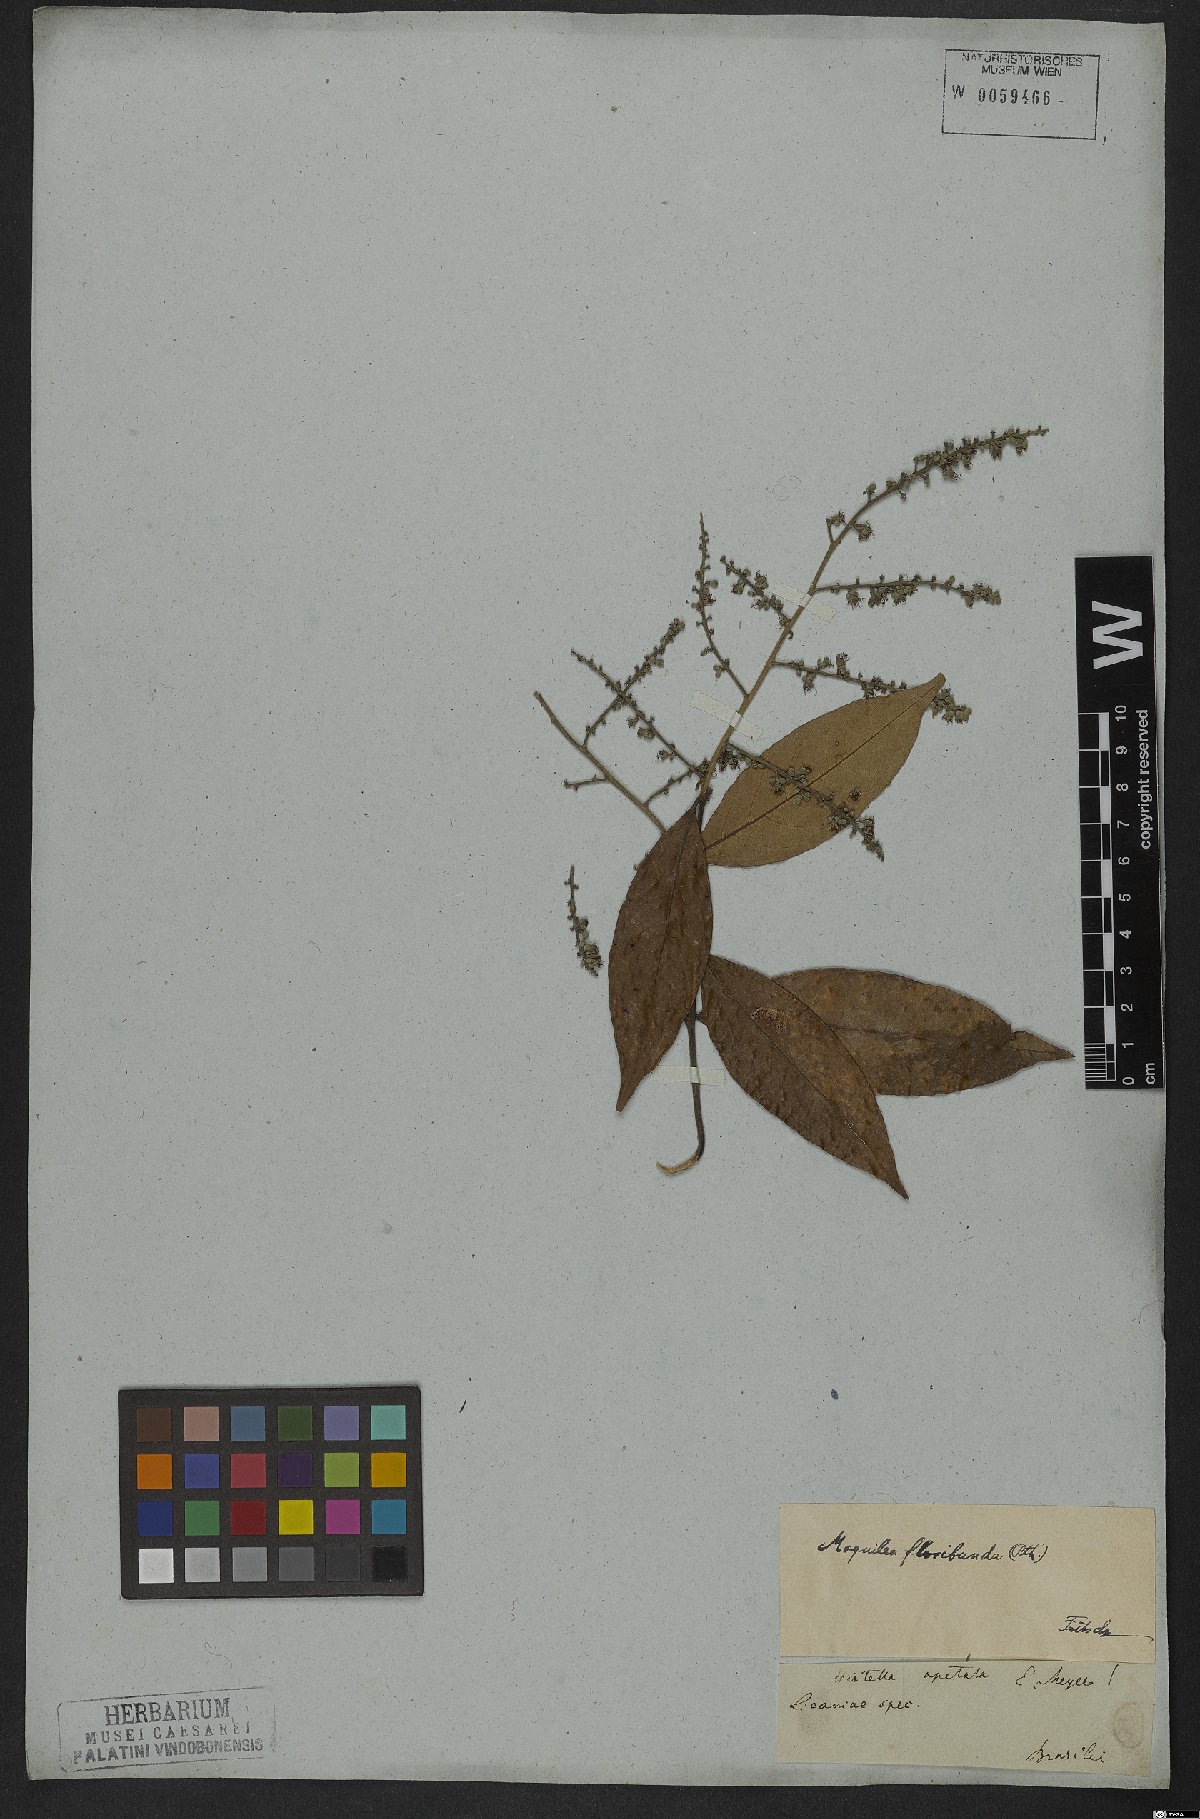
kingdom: Plantae
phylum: Tracheophyta
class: Magnoliopsida
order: Malpighiales
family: Chrysobalanaceae
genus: Leptobalanus
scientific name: Leptobalanus apetalus
